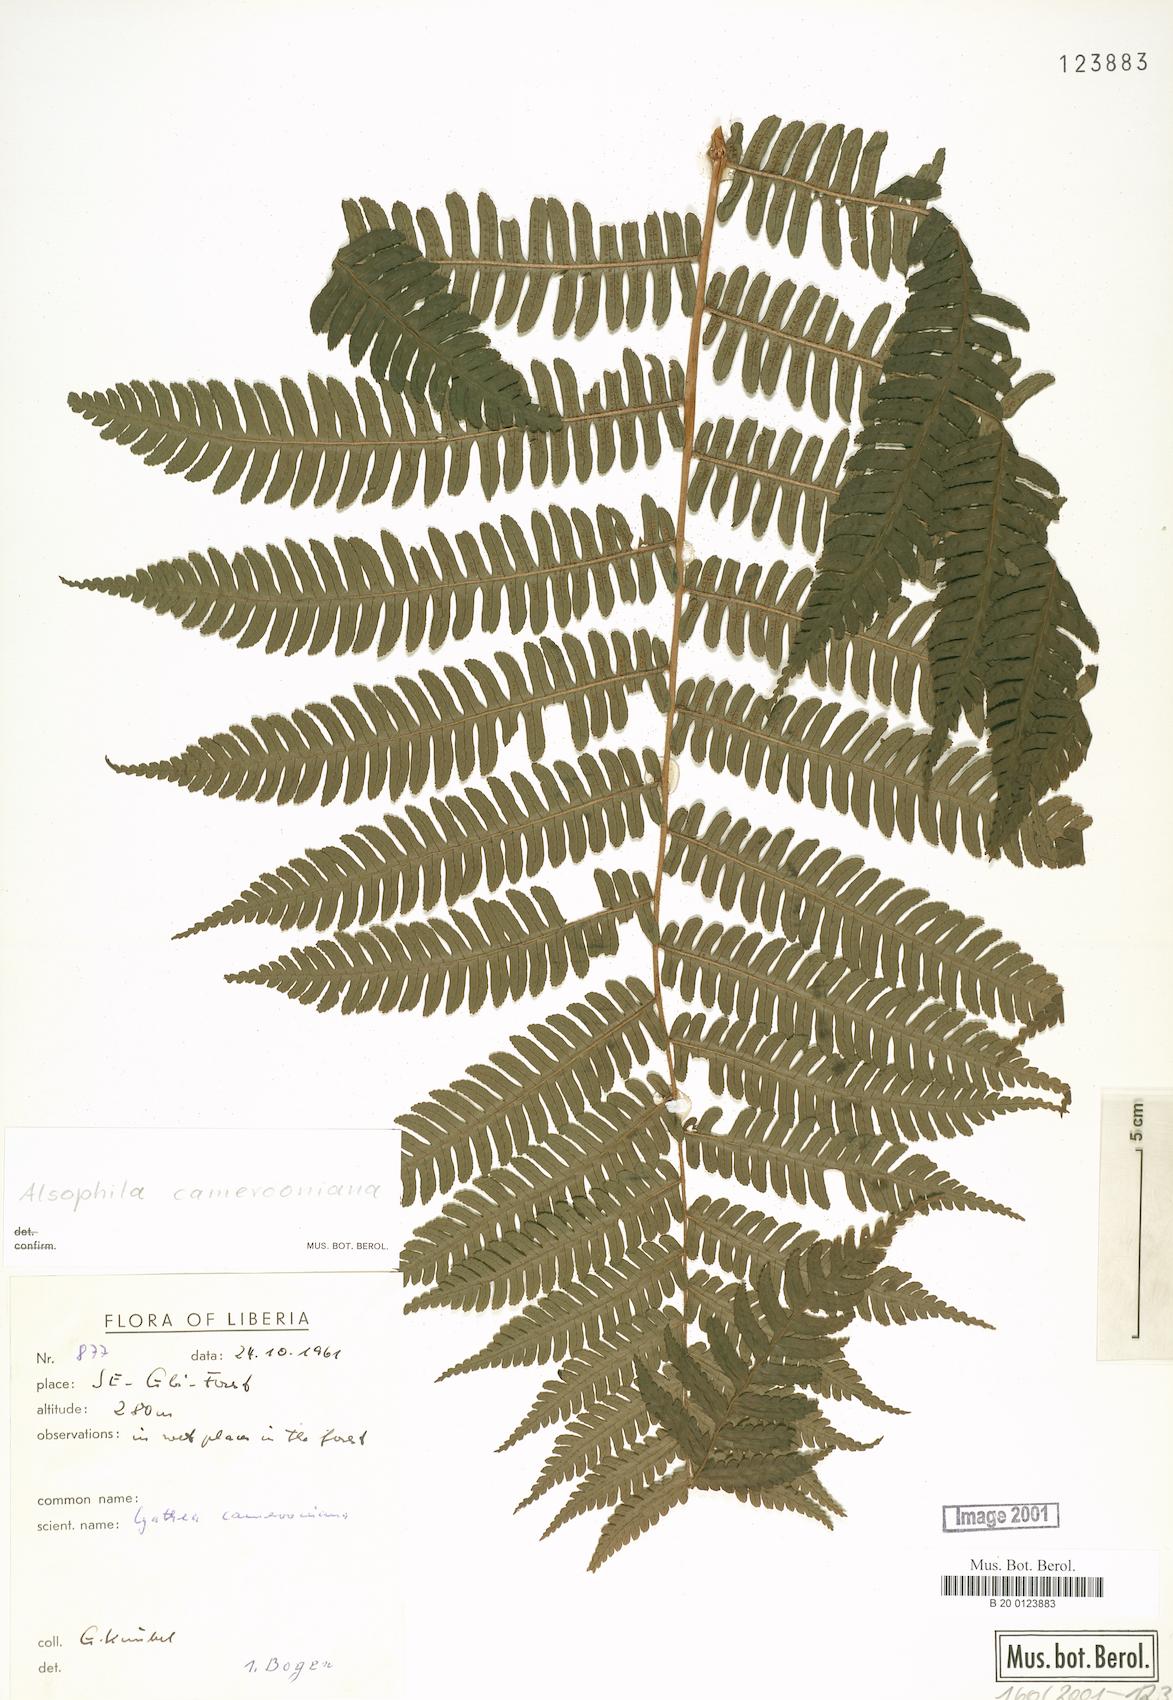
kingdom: Plantae
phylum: Tracheophyta
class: Polypodiopsida
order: Cyatheales
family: Cyatheaceae
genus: Alsophila
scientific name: Alsophila camerooniana
